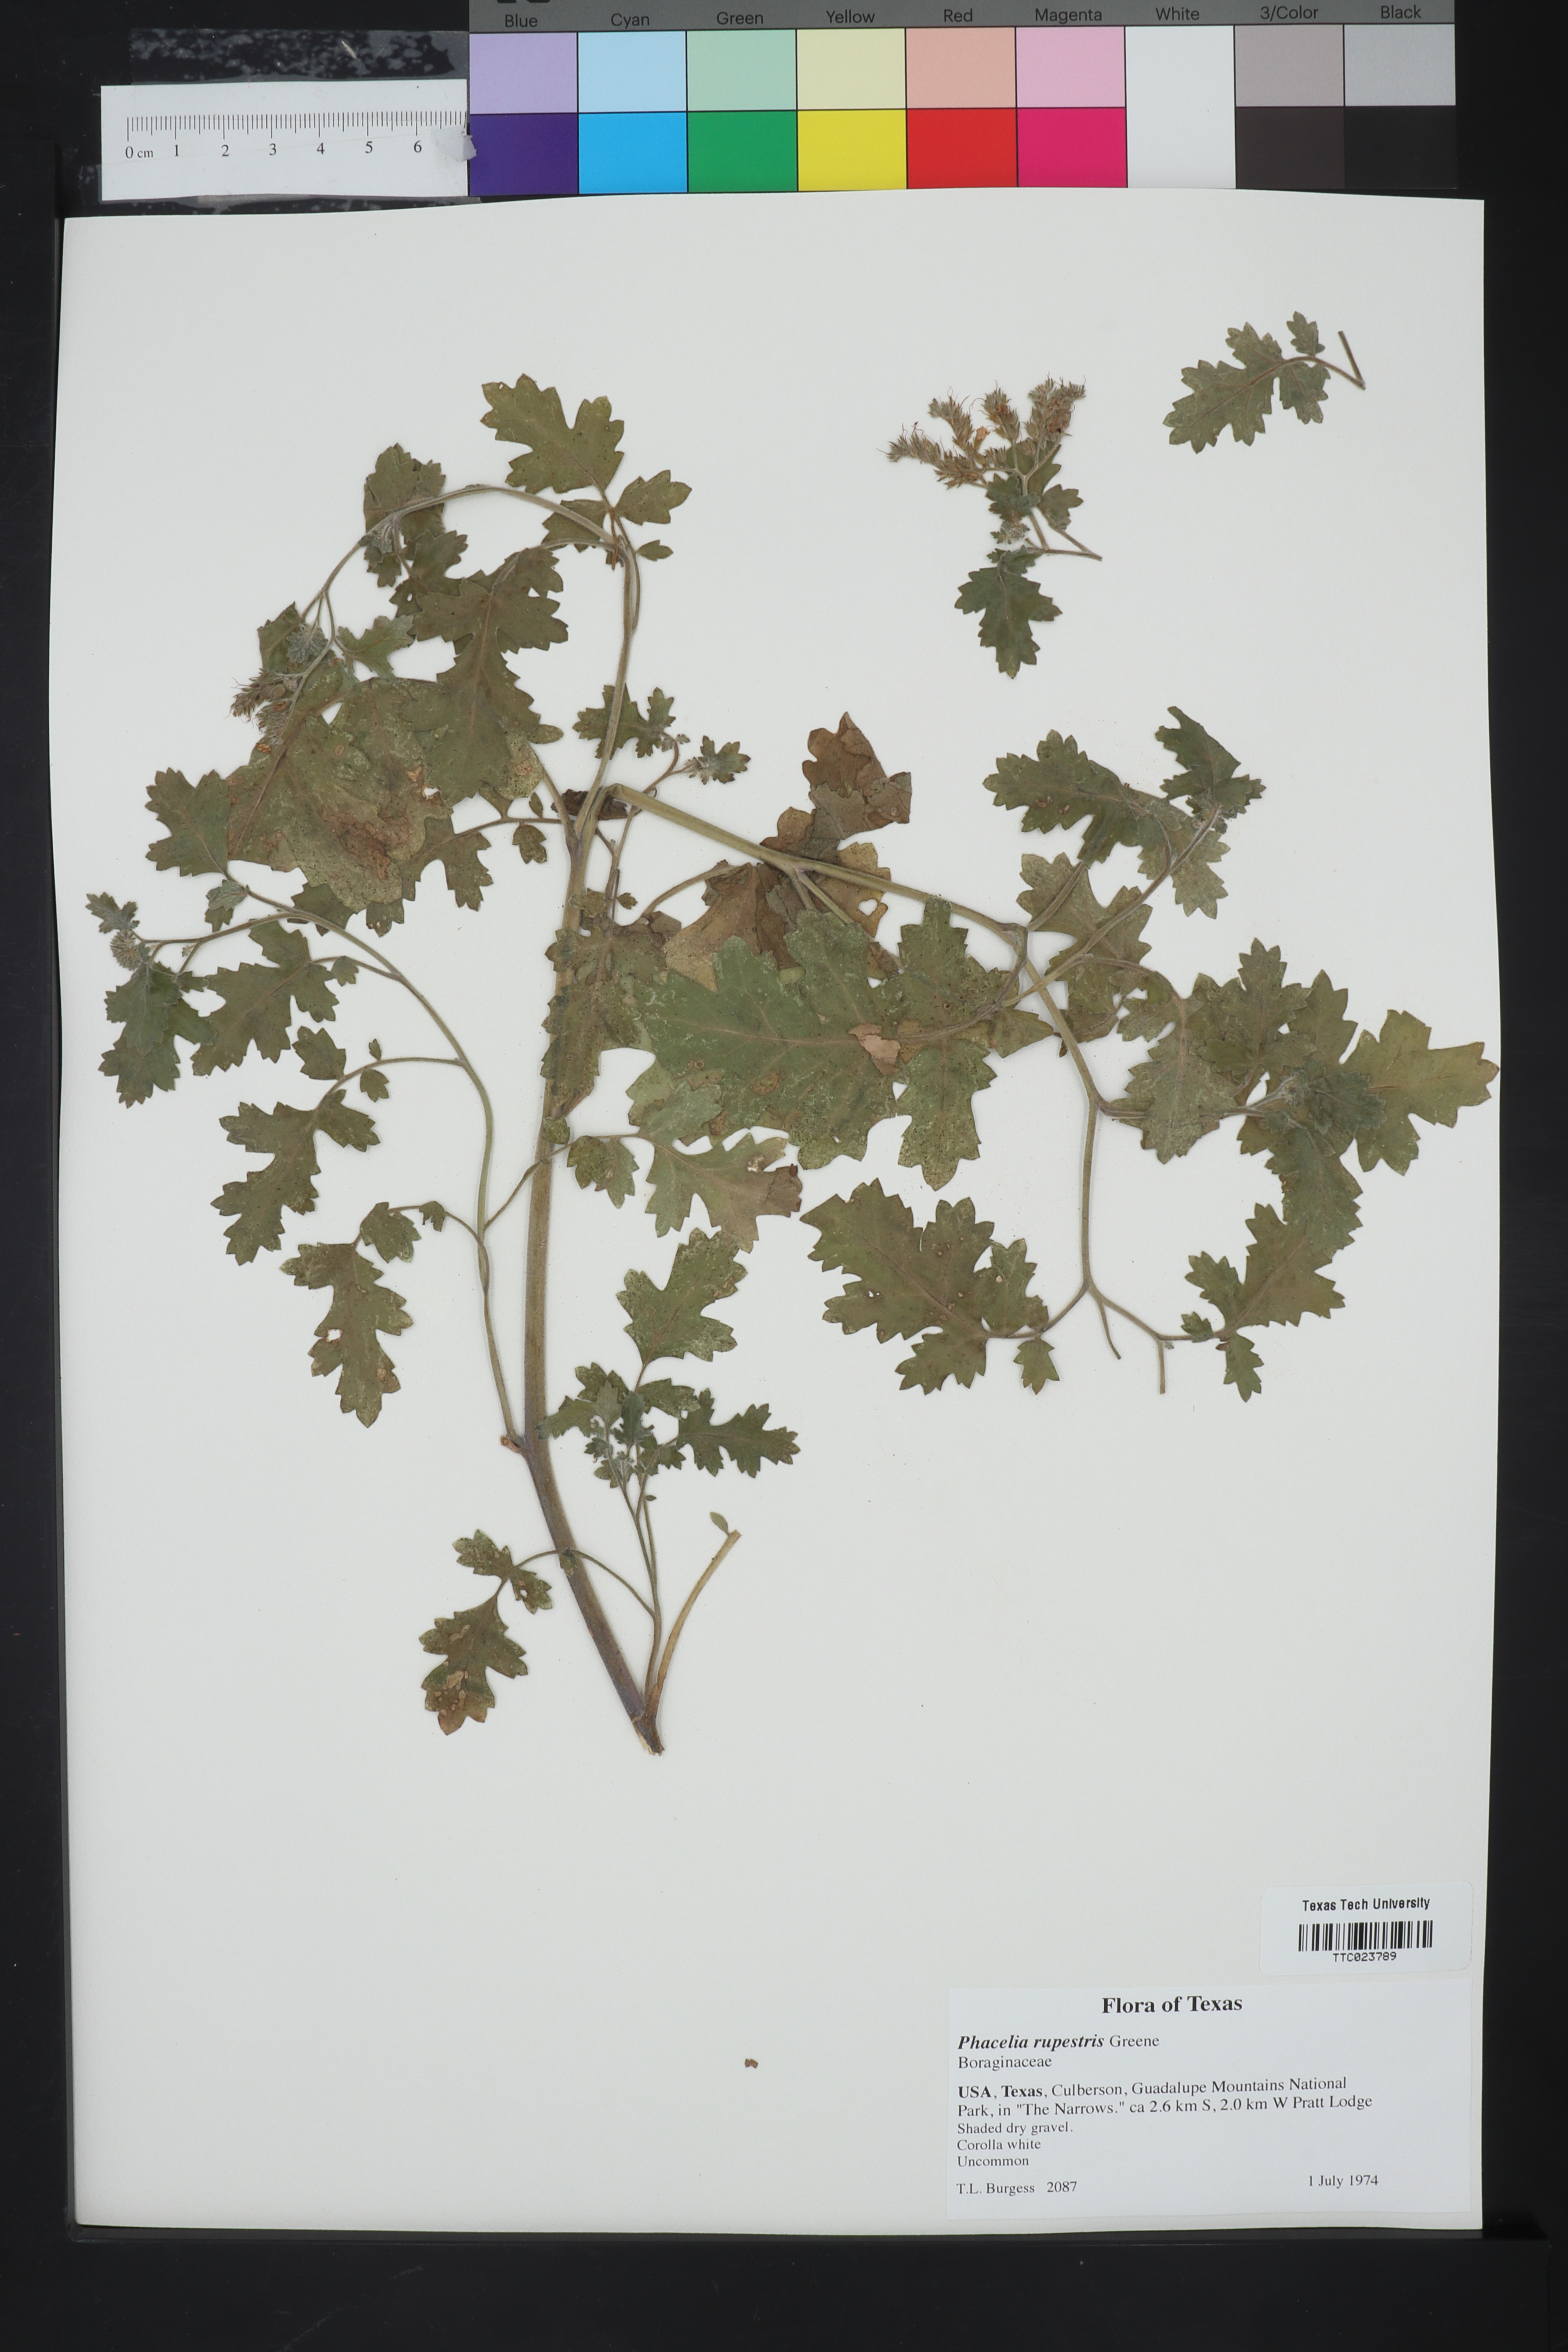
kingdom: Plantae
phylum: Tracheophyta
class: Magnoliopsida
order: Boraginales
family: Hydrophyllaceae
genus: Phacelia
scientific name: Phacelia rupestris
